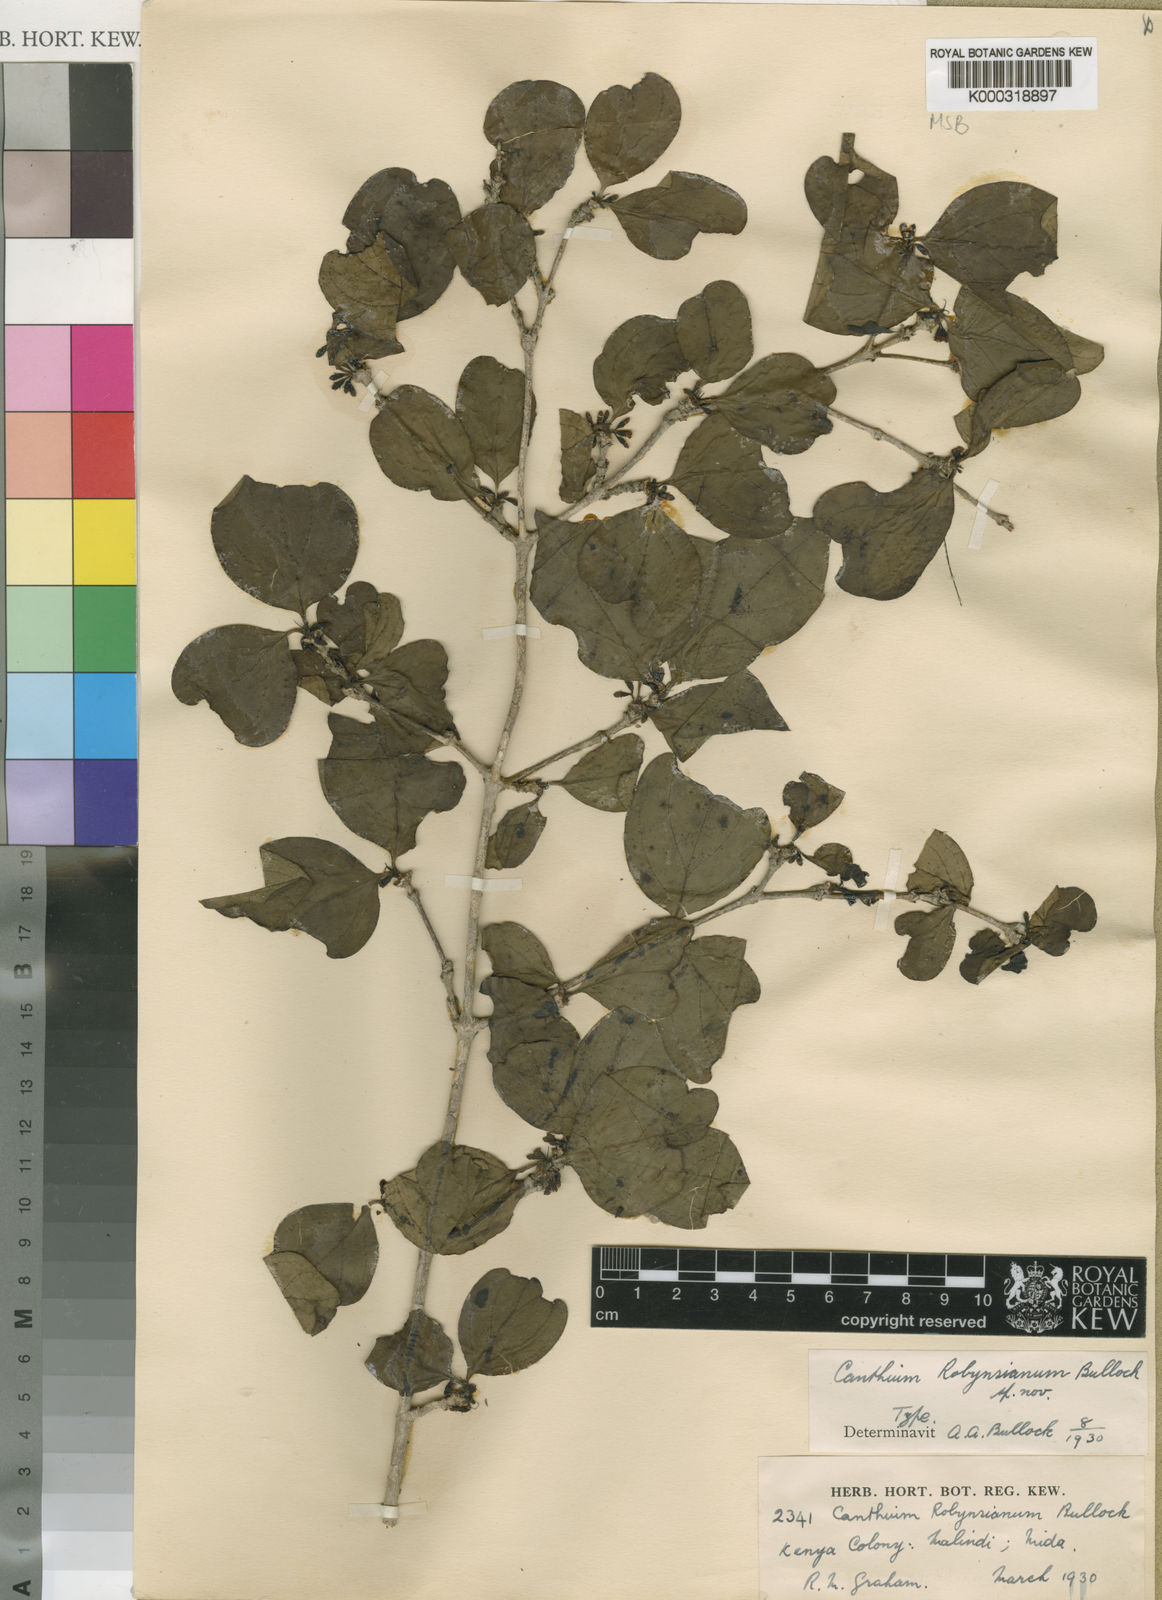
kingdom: Plantae
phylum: Tracheophyta
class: Magnoliopsida
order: Gentianales
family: Rubiaceae
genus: Afrocanthium
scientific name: Afrocanthium pseudoverticillatum
